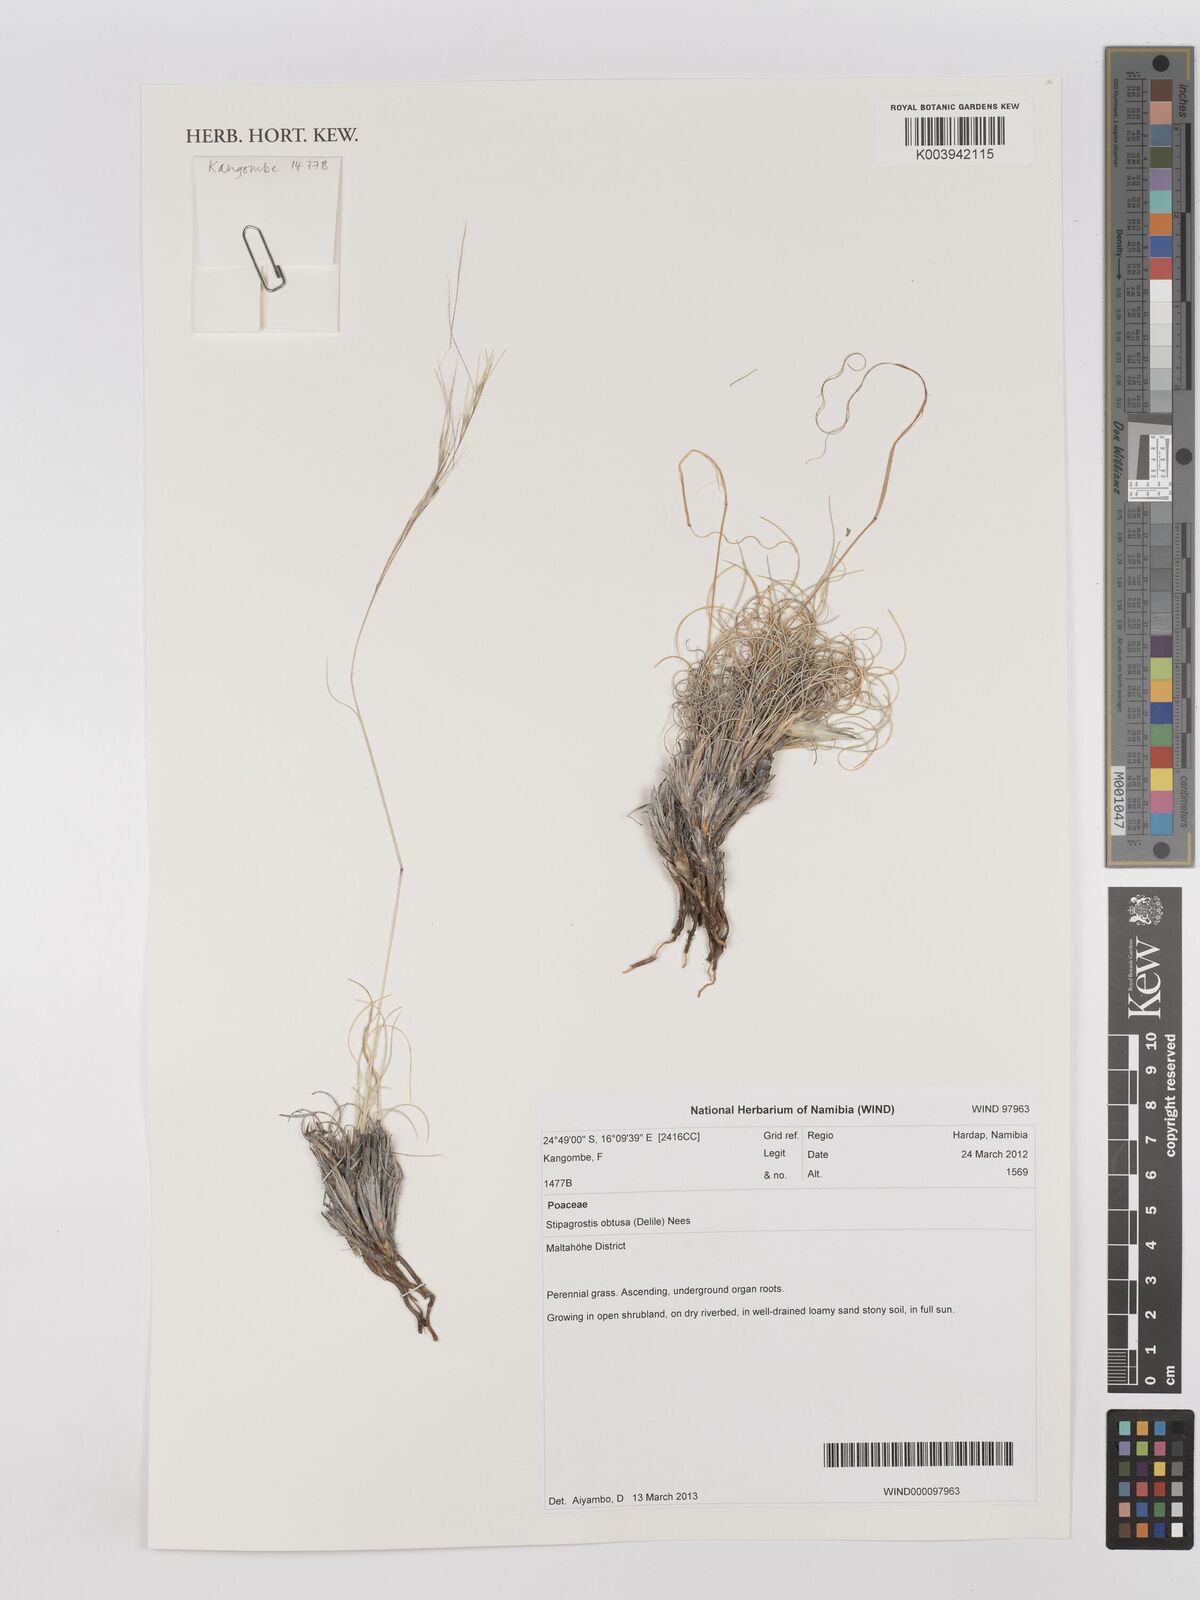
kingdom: Plantae
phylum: Tracheophyta
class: Liliopsida
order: Poales
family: Poaceae
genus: Stipagrostis
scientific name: Stipagrostis obtusa
